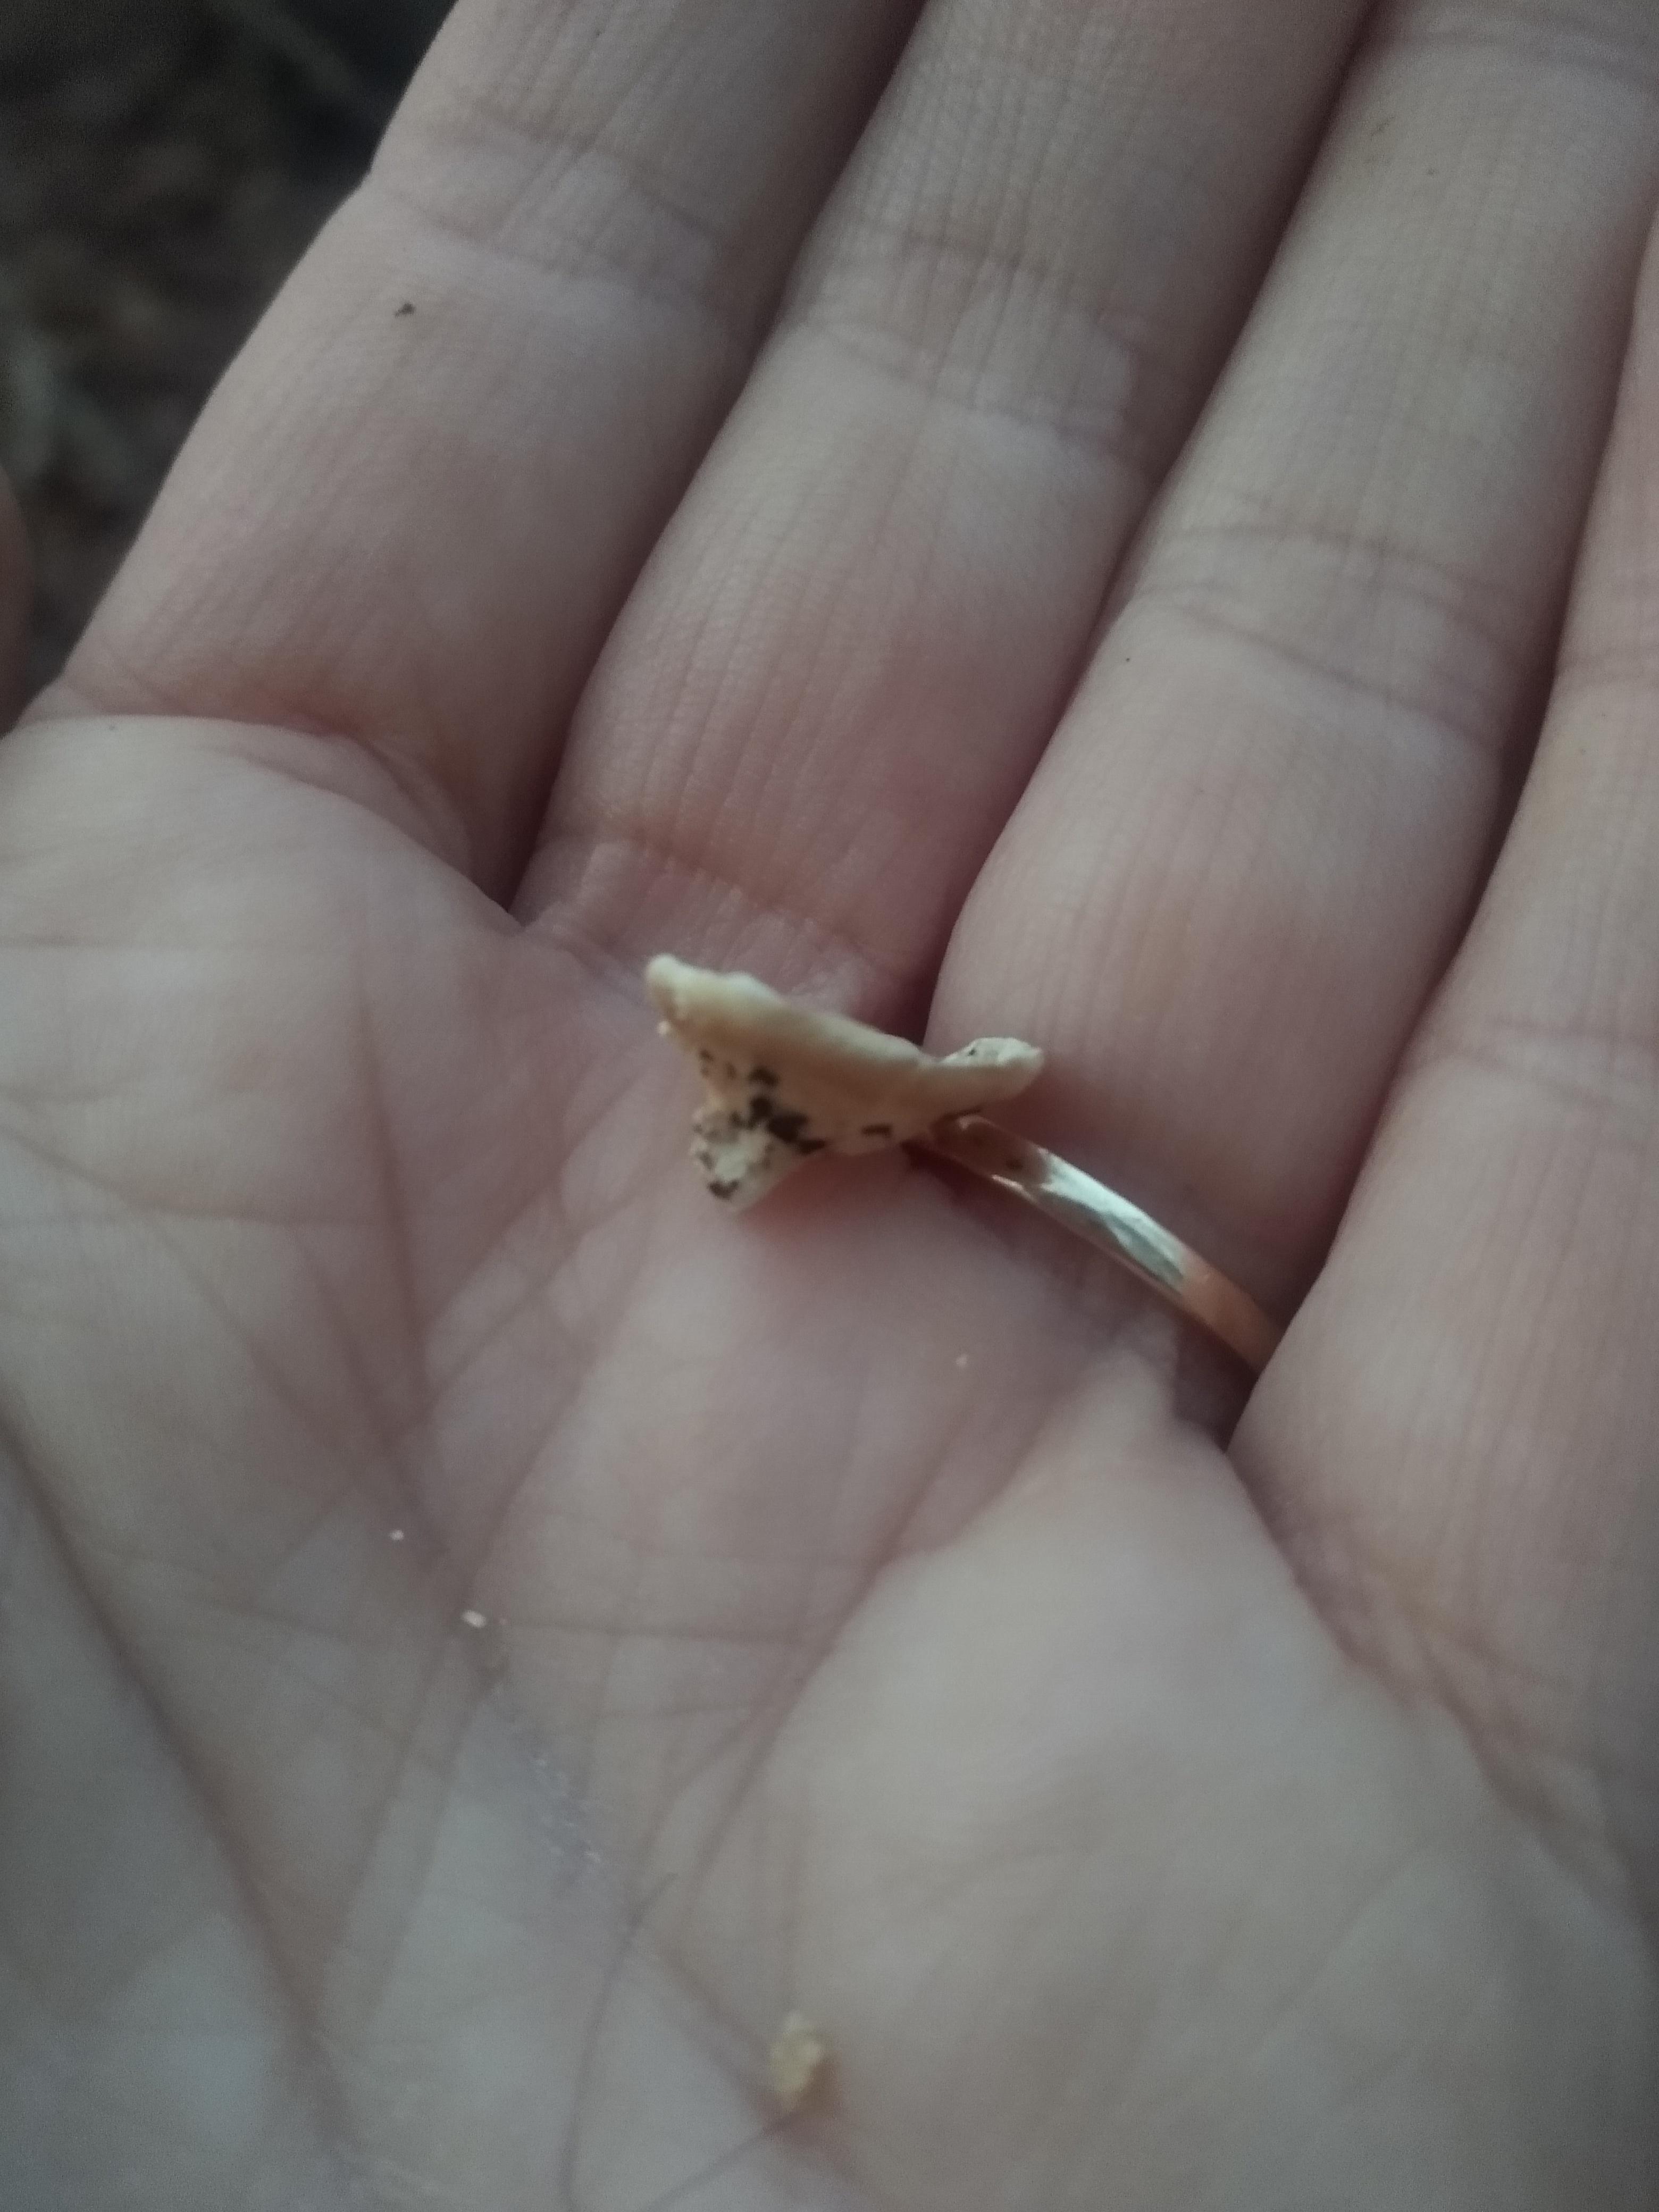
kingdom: Fungi
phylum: Basidiomycota
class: Agaricomycetes
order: Amylocorticiales
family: Amylocorticiaceae
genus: Plicaturopsis
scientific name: Plicaturopsis crispa
